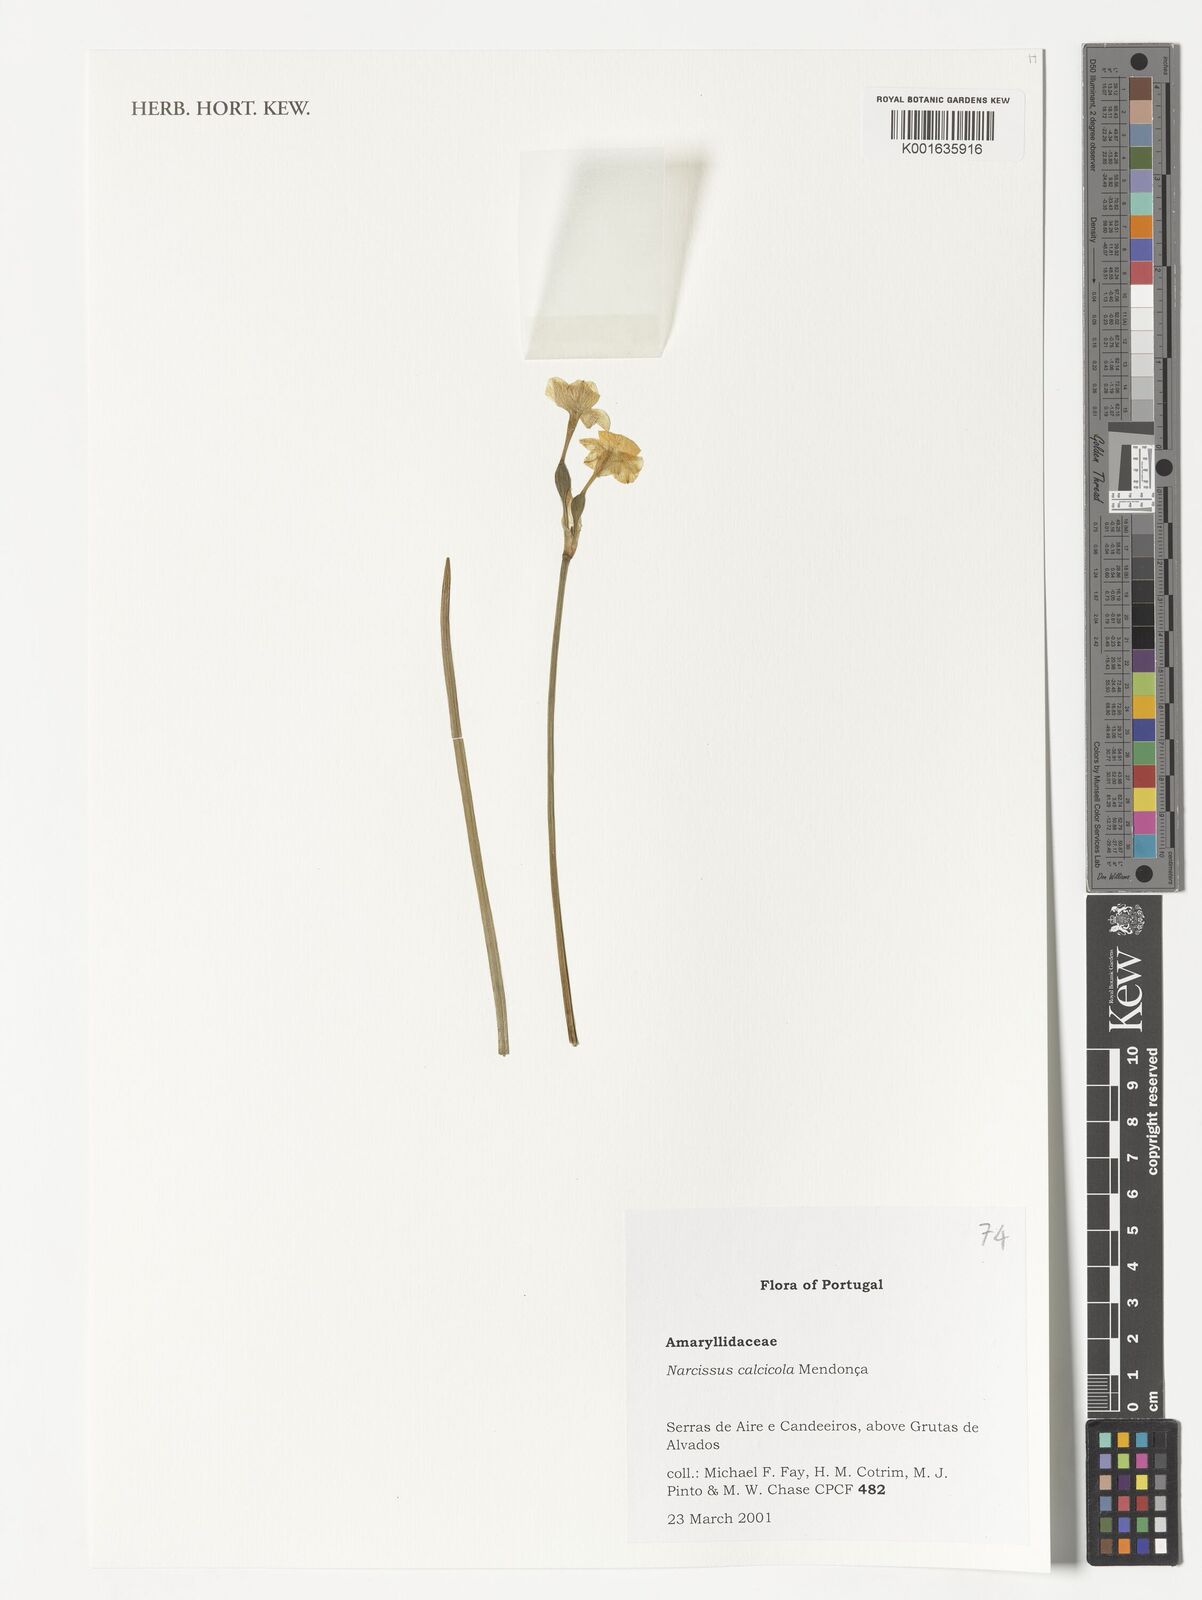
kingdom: Plantae
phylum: Tracheophyta
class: Liliopsida
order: Asparagales
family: Amaryllidaceae
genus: Narcissus
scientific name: Narcissus calcicola
